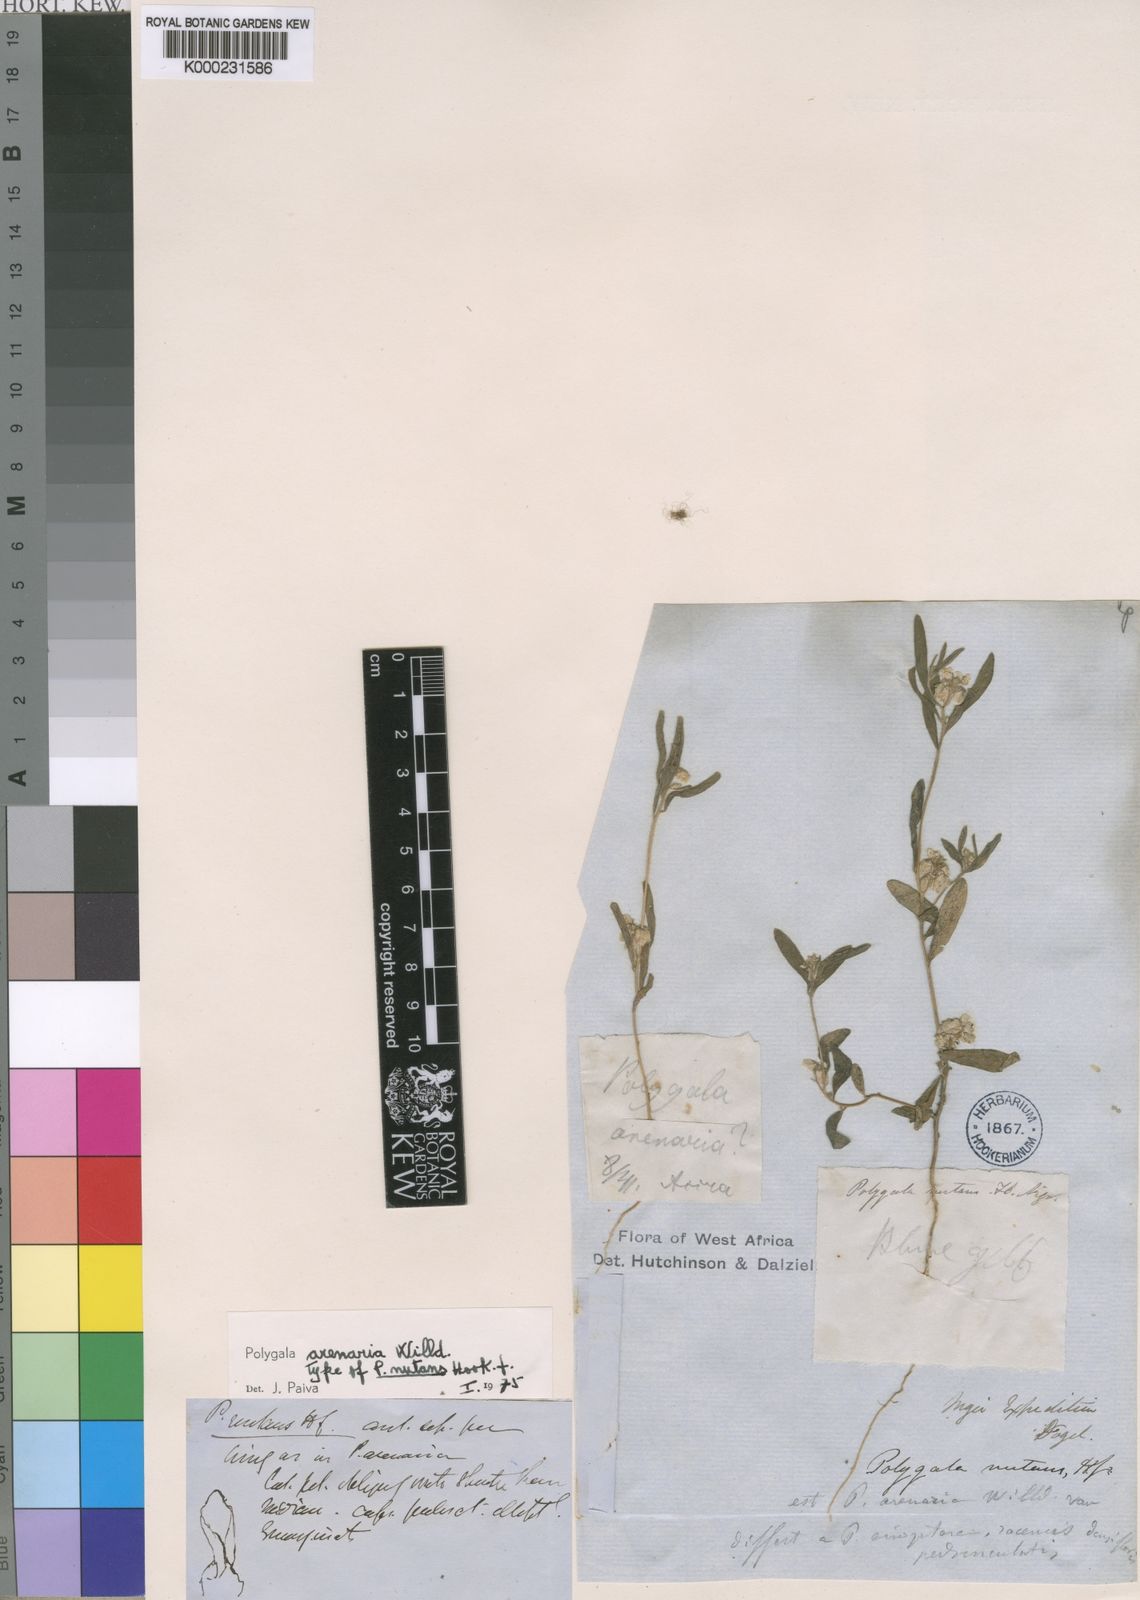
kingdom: Plantae
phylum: Tracheophyta
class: Magnoliopsida
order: Fabales
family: Polygalaceae
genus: Polygala
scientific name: Polygala arenaria
